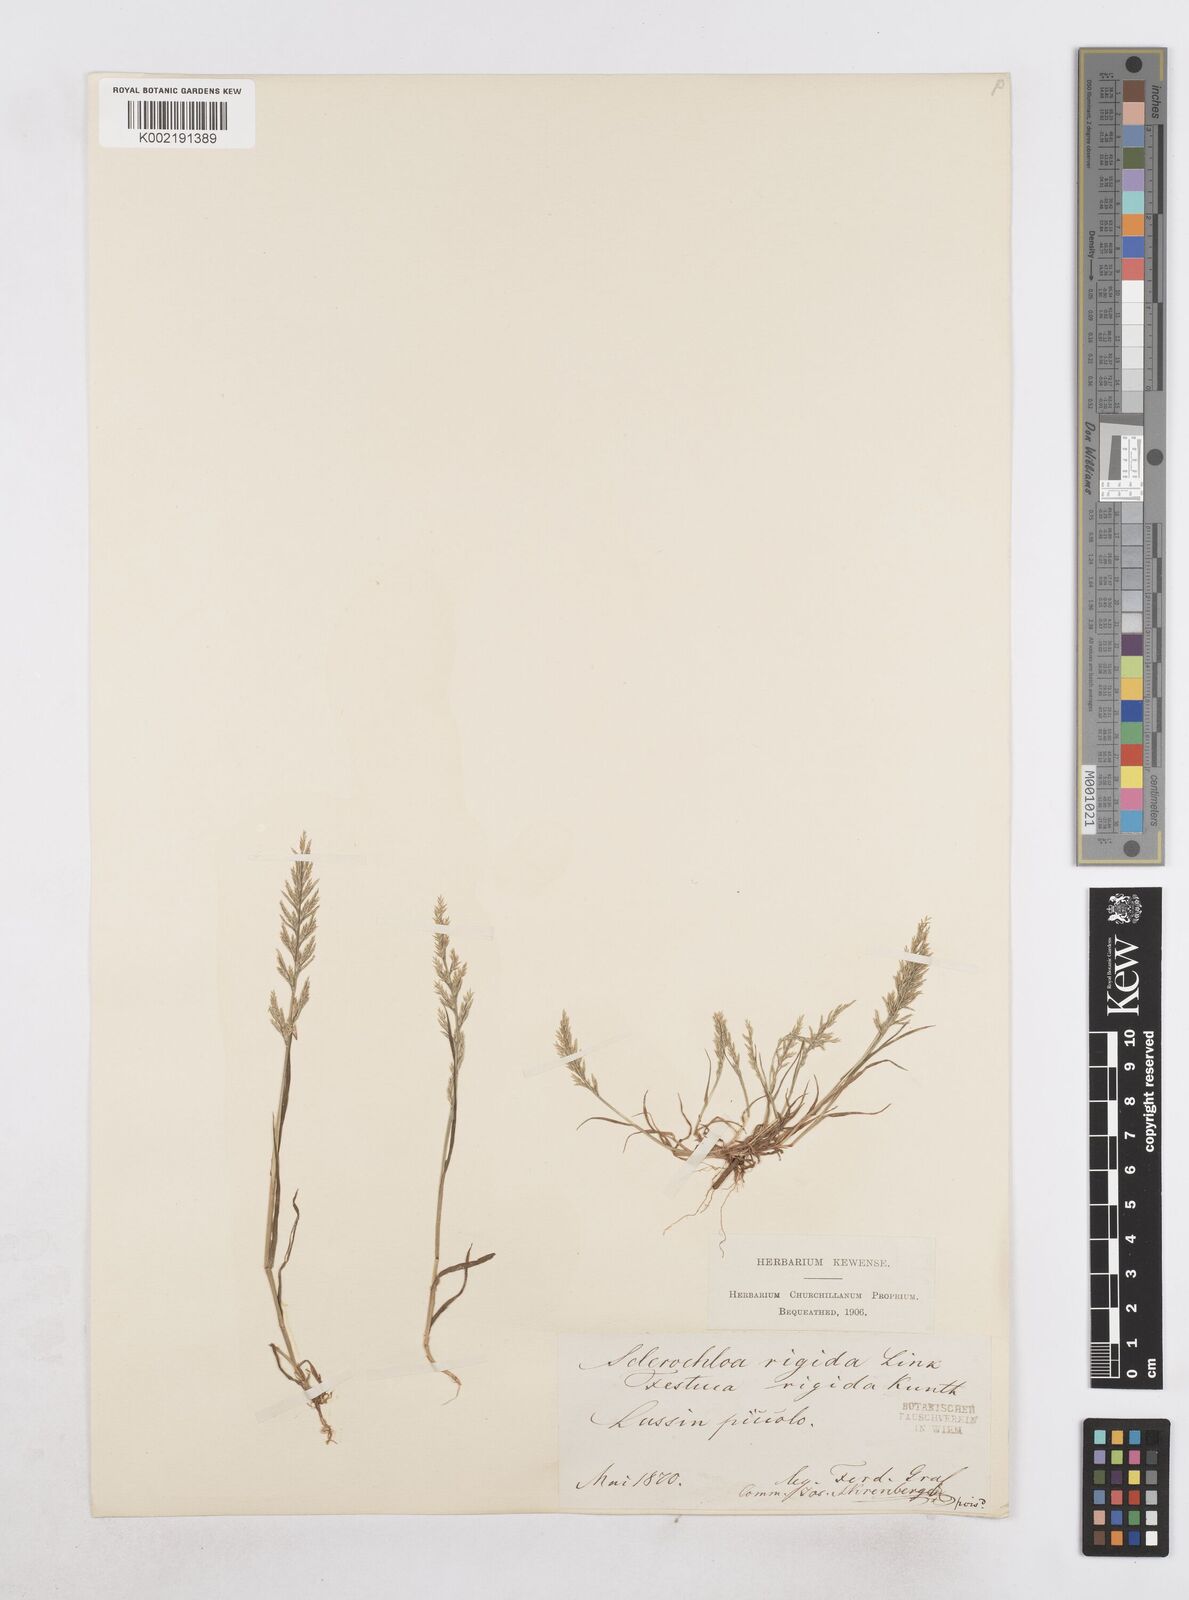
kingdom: Plantae
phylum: Tracheophyta
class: Liliopsida
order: Poales
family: Poaceae
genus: Catapodium
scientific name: Catapodium rigidum
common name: Fern-grass
